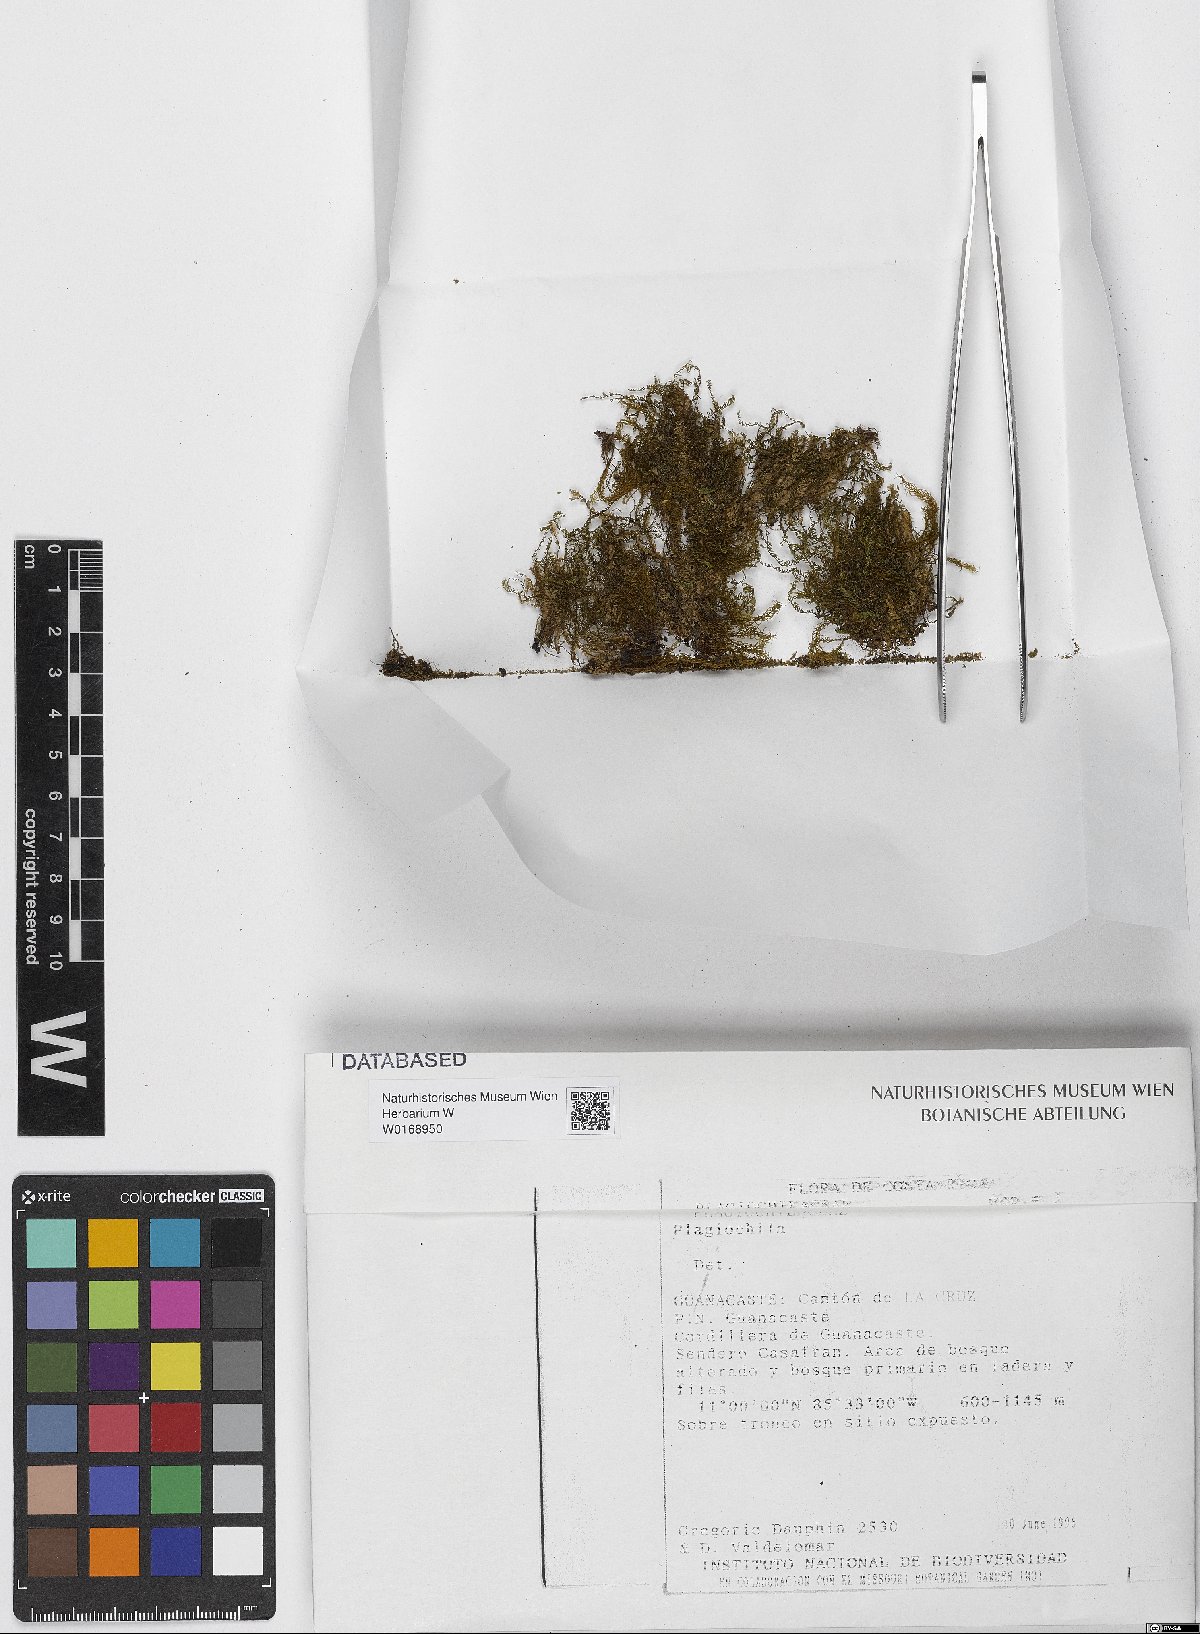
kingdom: Plantae
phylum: Marchantiophyta
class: Jungermanniopsida
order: Jungermanniales
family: Plagiochilaceae
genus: Plagiochila
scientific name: Plagiochila
